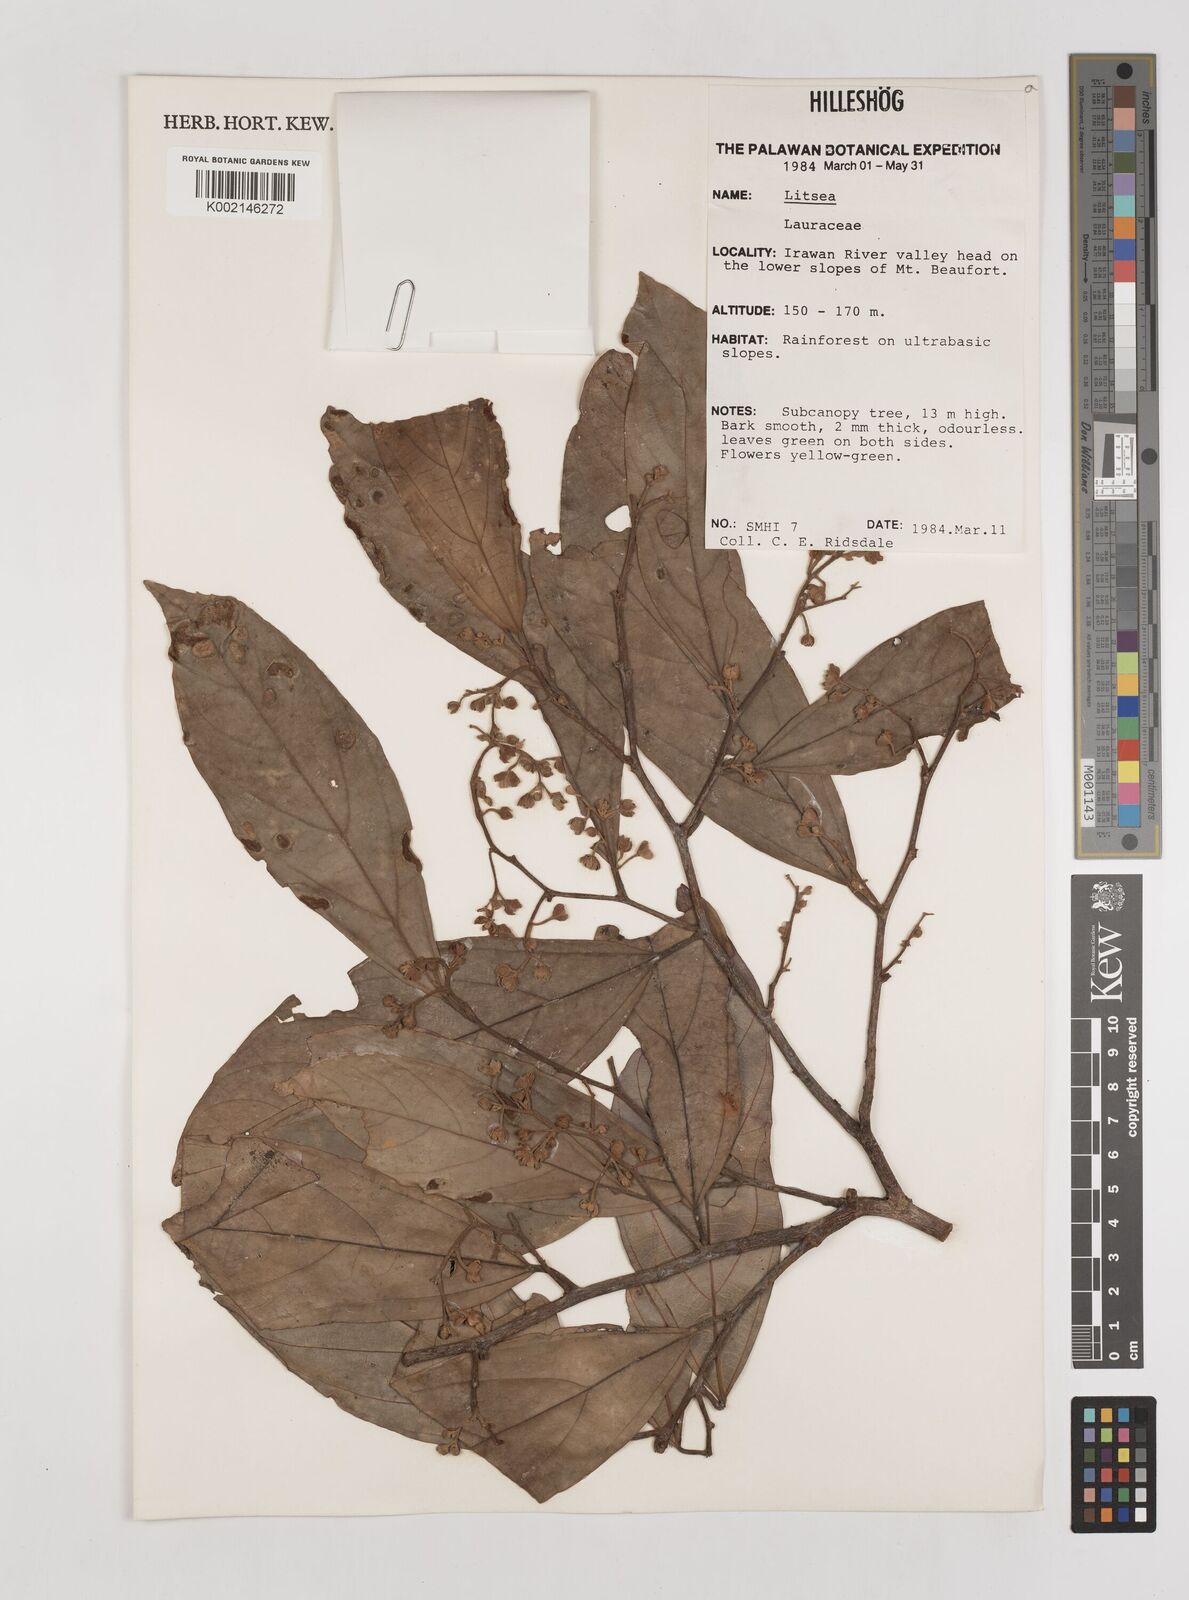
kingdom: Plantae
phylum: Tracheophyta
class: Magnoliopsida
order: Laurales
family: Lauraceae
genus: Litsea
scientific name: Litsea
